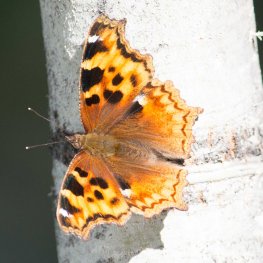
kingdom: Animalia
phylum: Arthropoda
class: Insecta
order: Lepidoptera
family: Nymphalidae
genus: Polygonia
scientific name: Polygonia vaualbum
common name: Compton Tortoiseshell
